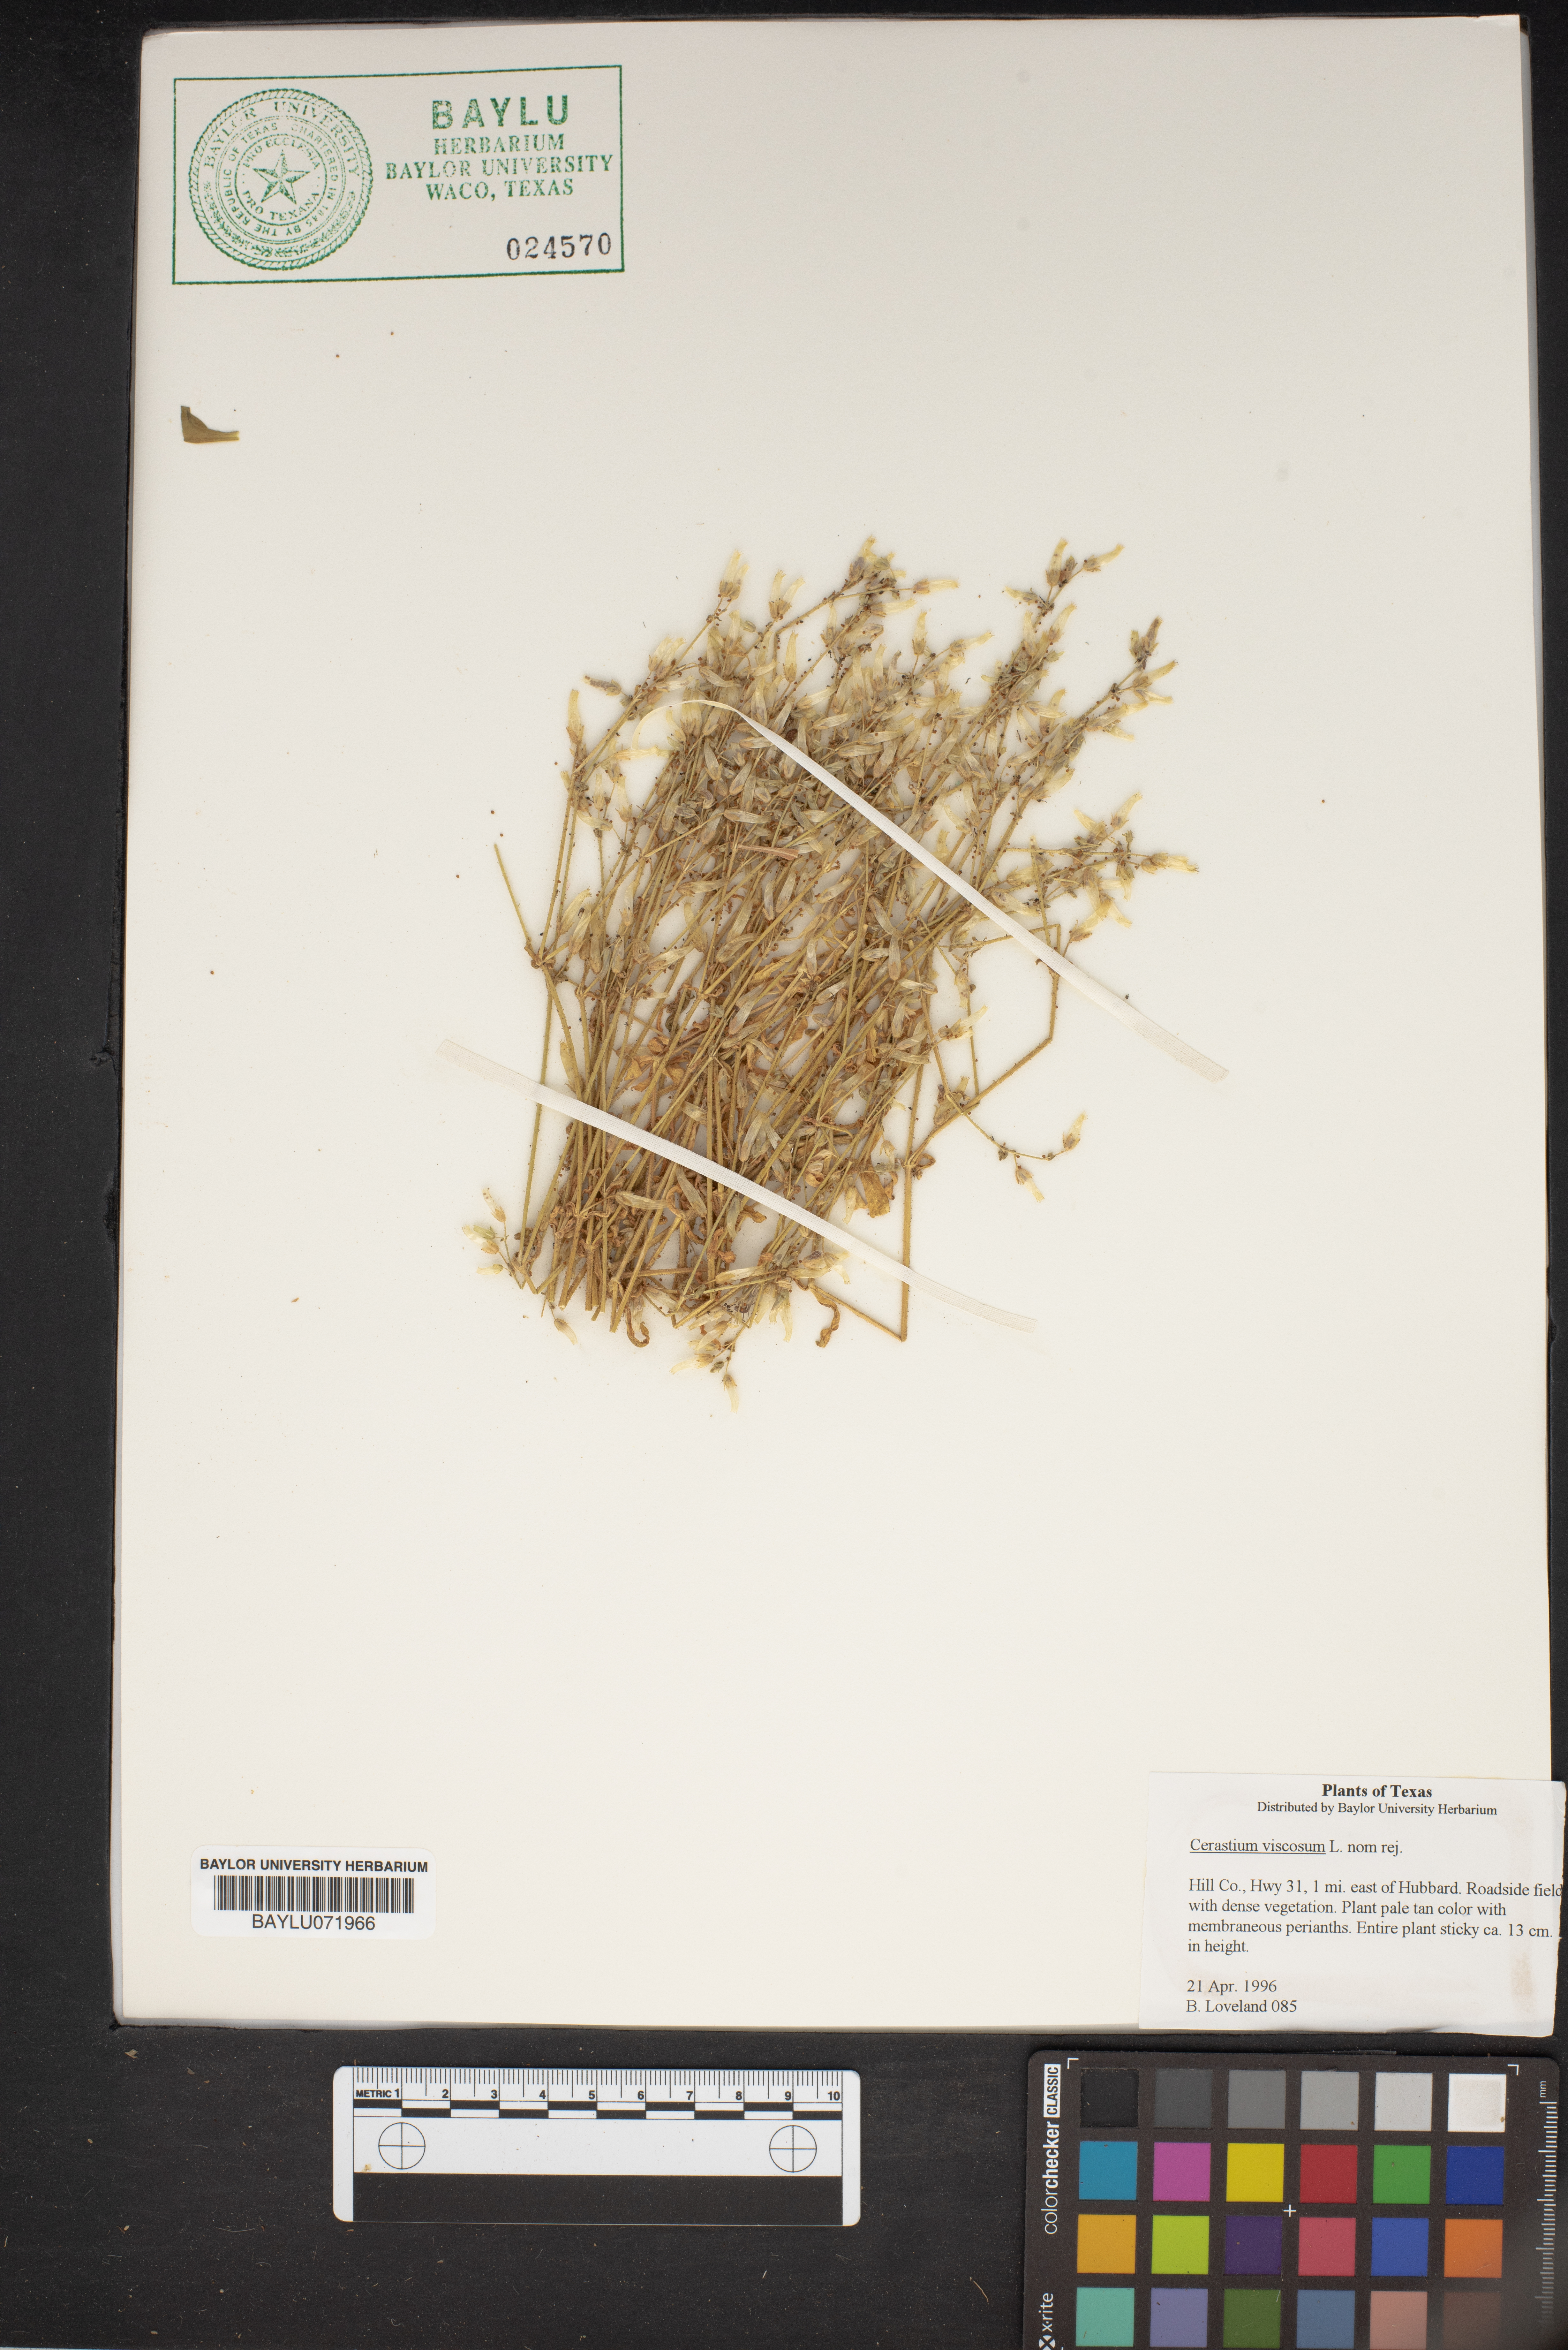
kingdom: Plantae
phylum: Tracheophyta
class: Magnoliopsida
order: Caryophyllales
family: Caryophyllaceae
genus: Cerastium
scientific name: Cerastium holosteoides
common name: Big chickweed
